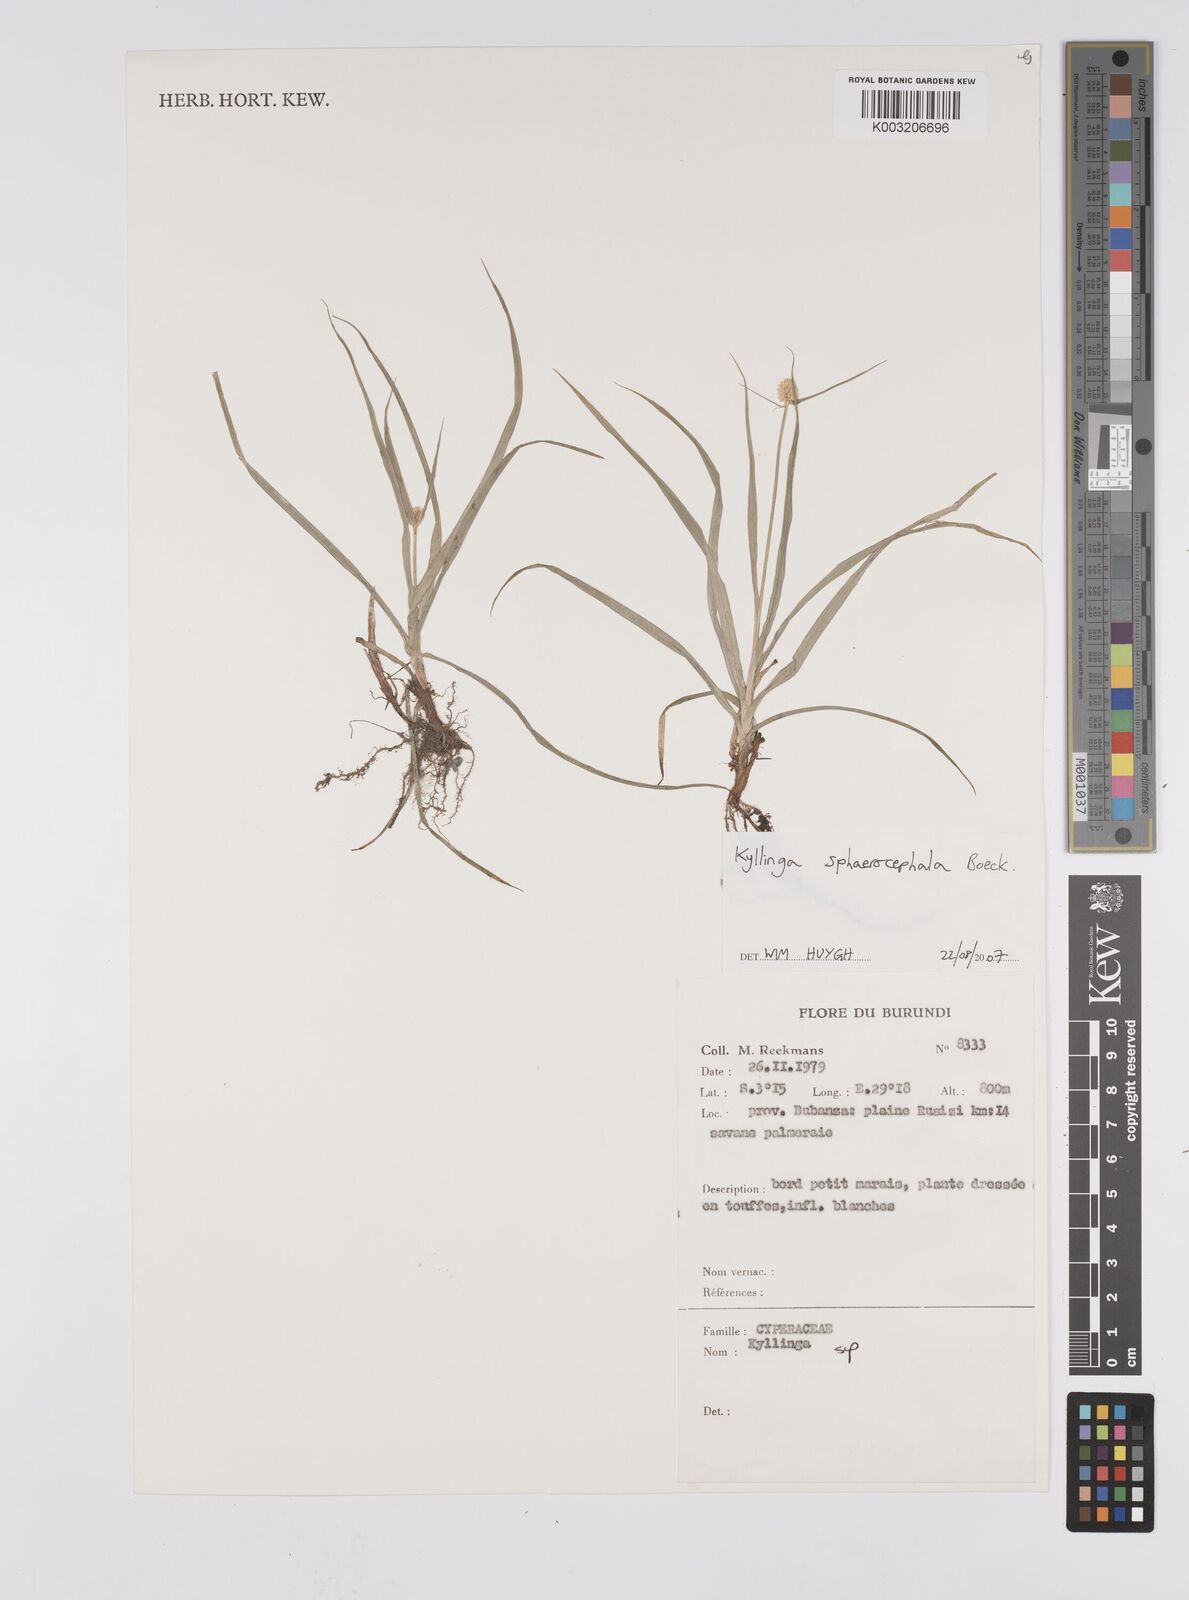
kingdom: Plantae
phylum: Tracheophyta
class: Liliopsida
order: Poales
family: Cyperaceae
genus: Cyperus
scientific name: Cyperus sphaerolepis
